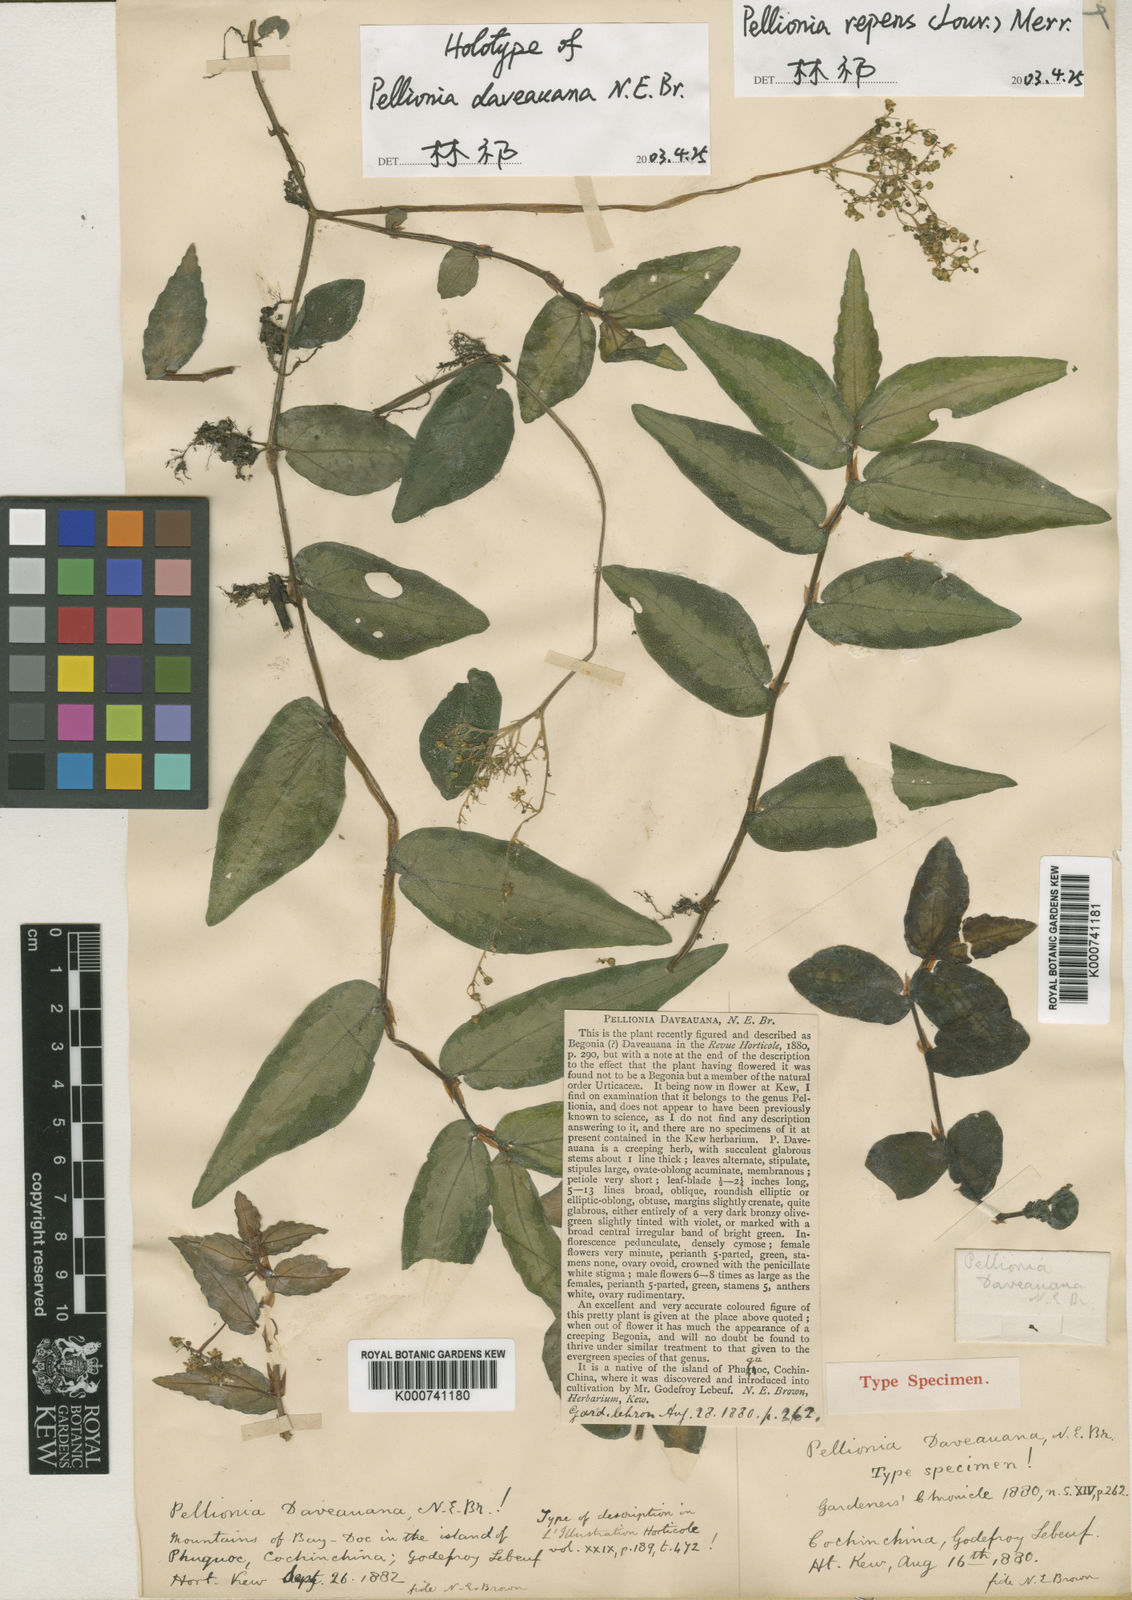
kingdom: Plantae
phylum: Tracheophyta
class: Magnoliopsida
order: Rosales
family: Urticaceae
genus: Procris
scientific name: Procris repens
